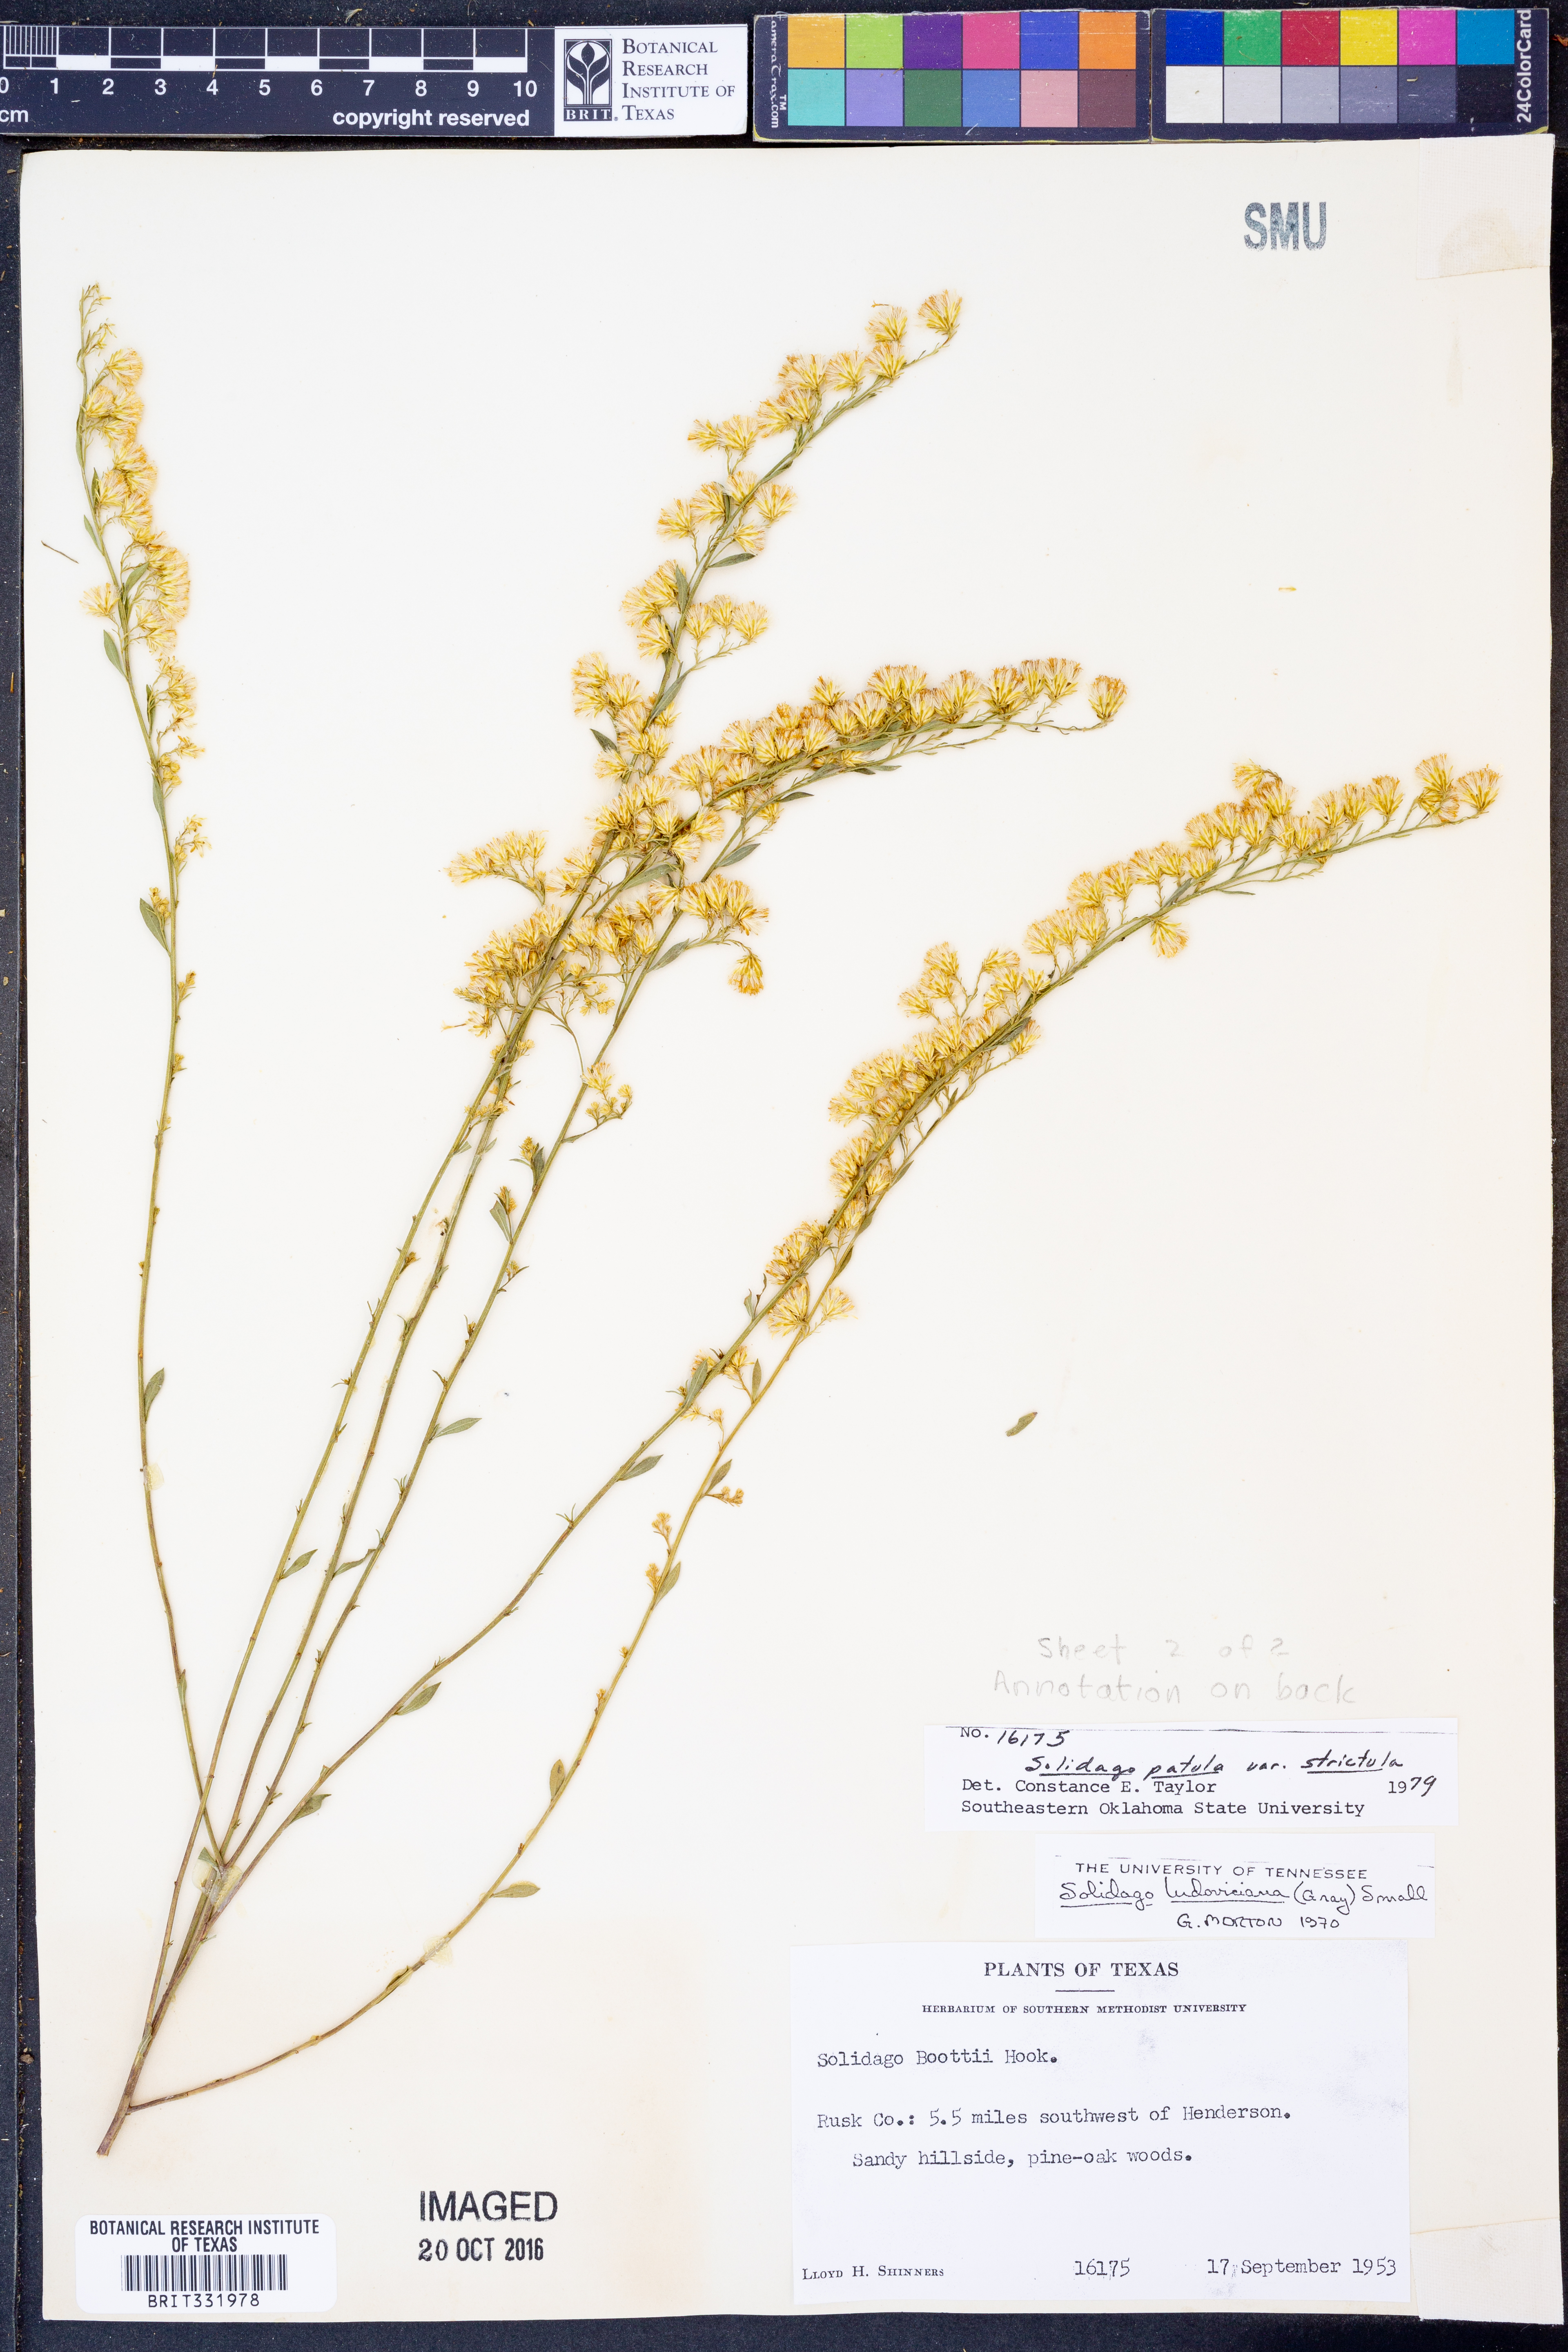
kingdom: Plantae
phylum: Tracheophyta
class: Magnoliopsida
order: Asterales
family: Asteraceae
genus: Solidago
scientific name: Solidago salicina
